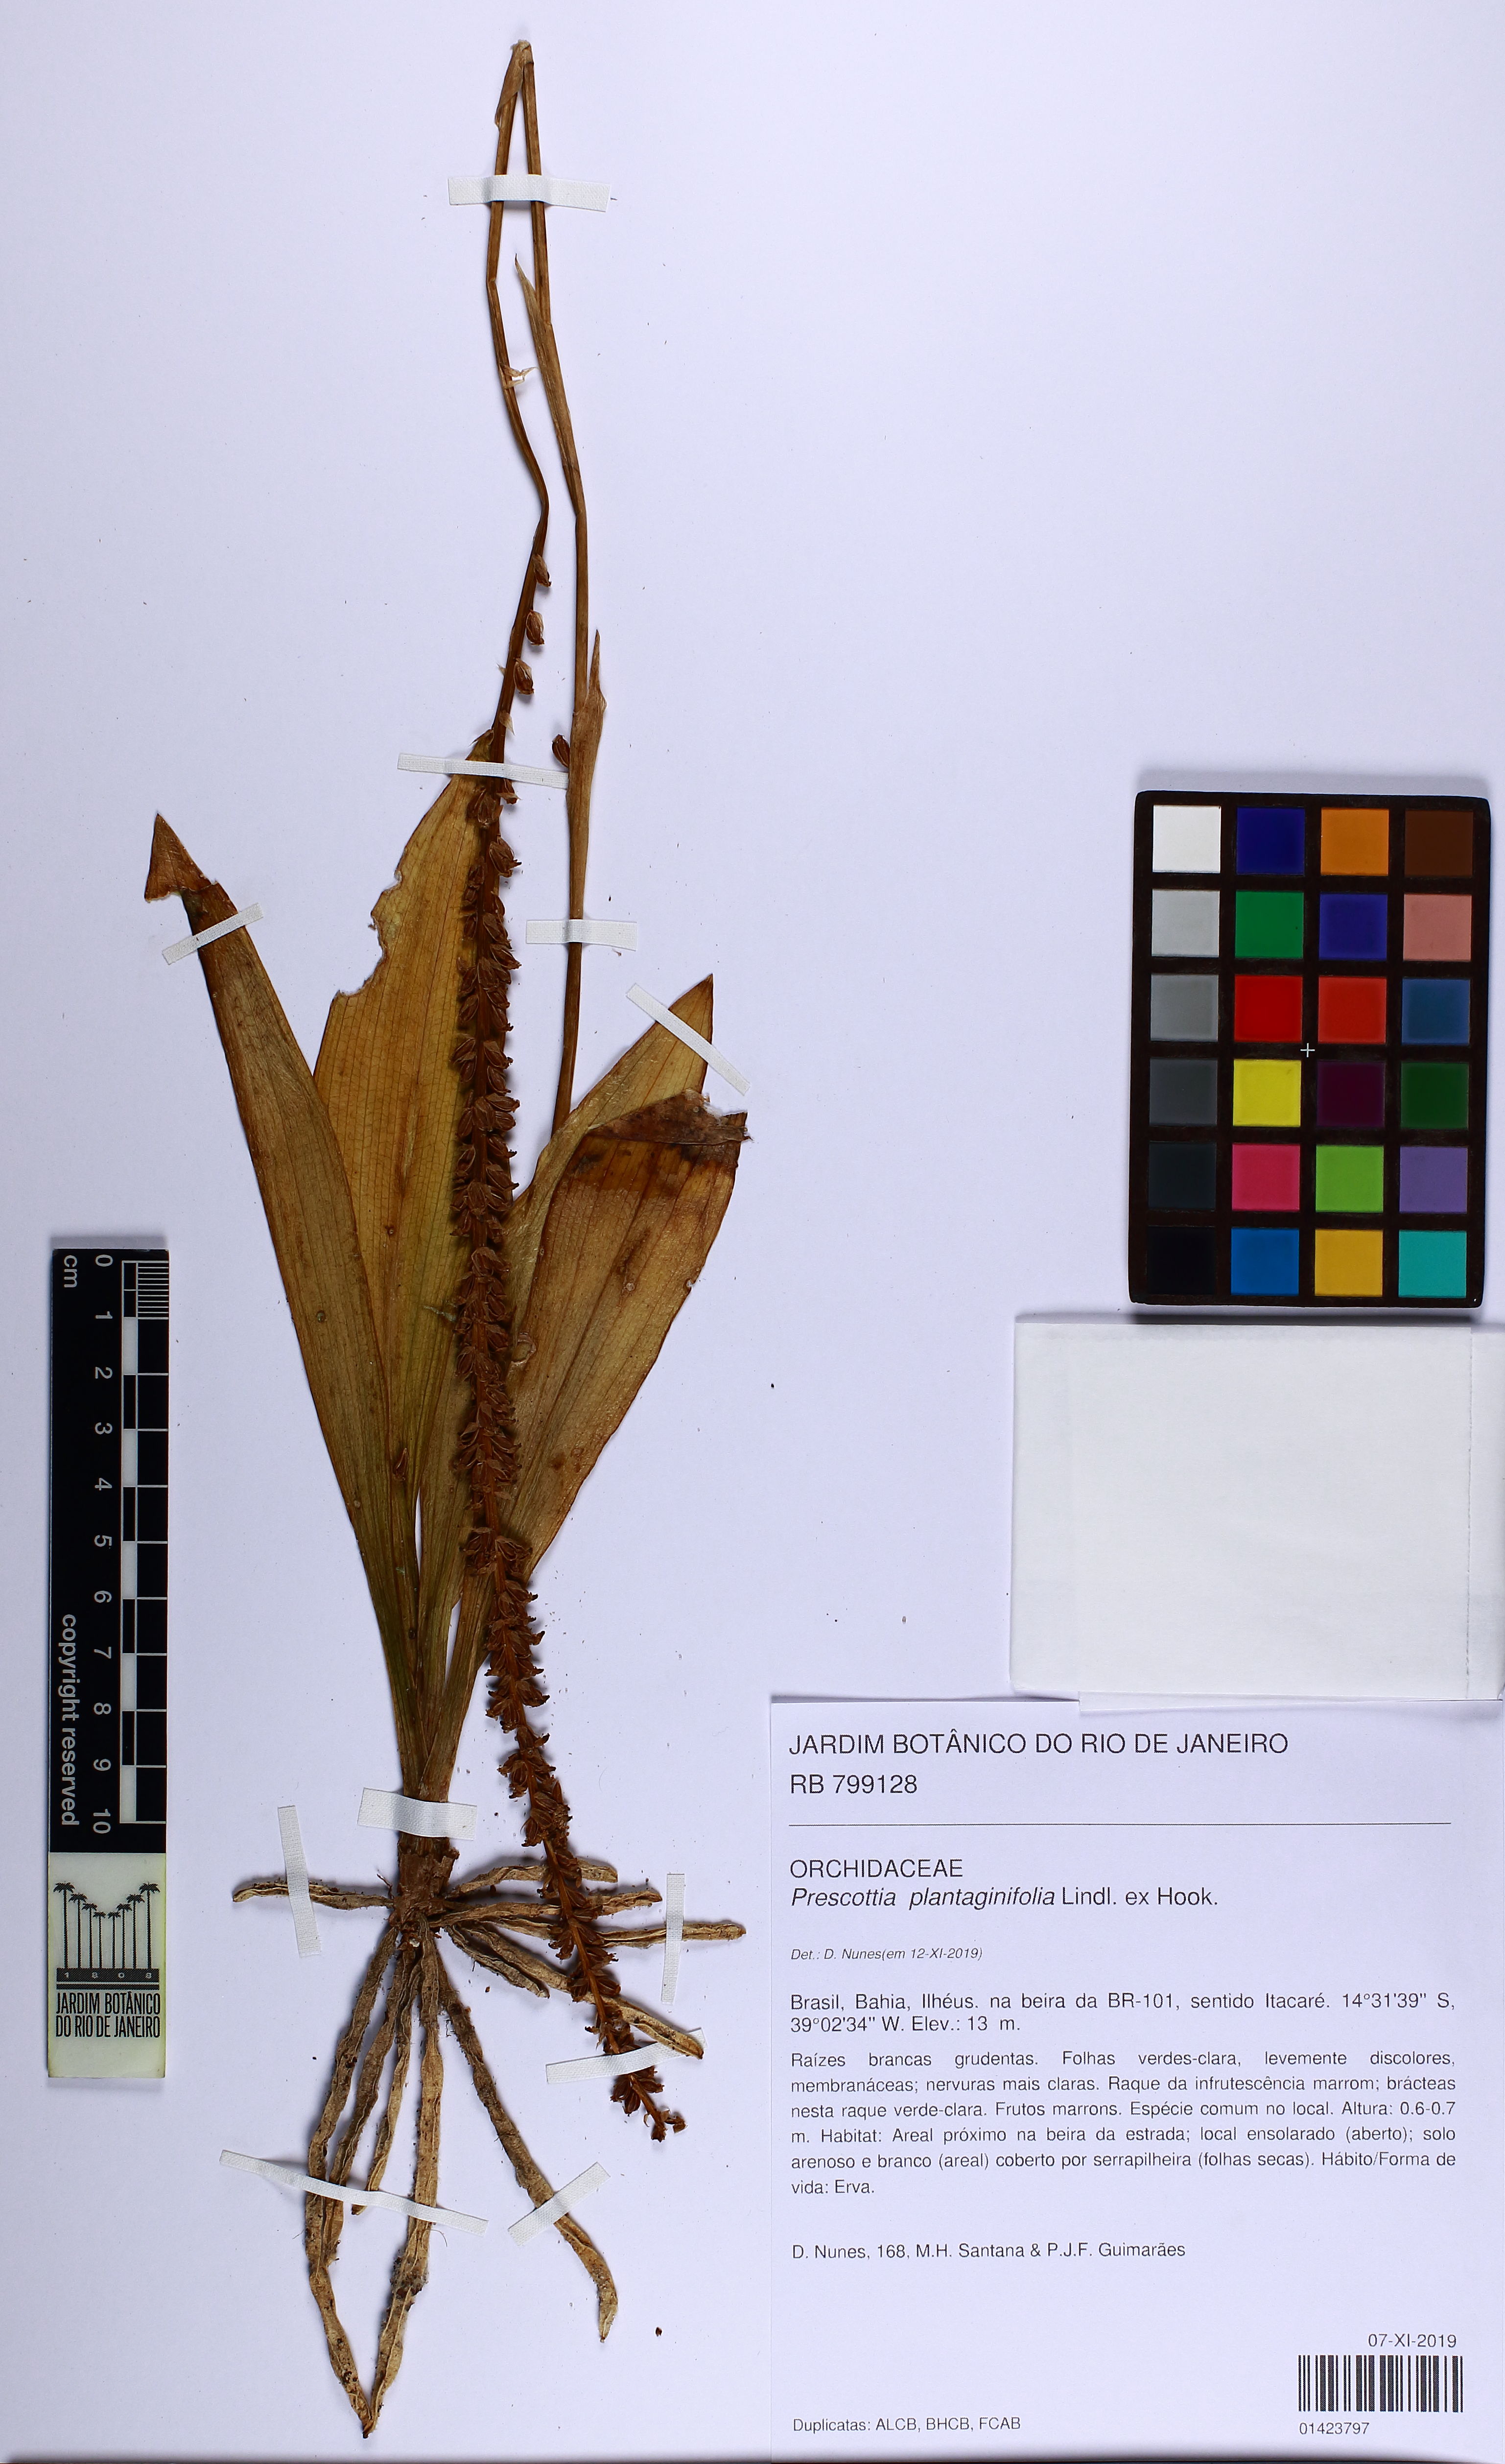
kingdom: Plantae
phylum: Tracheophyta
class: Liliopsida
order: Asparagales
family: Orchidaceae
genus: Prescottia
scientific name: Prescottia plantaginifolia
